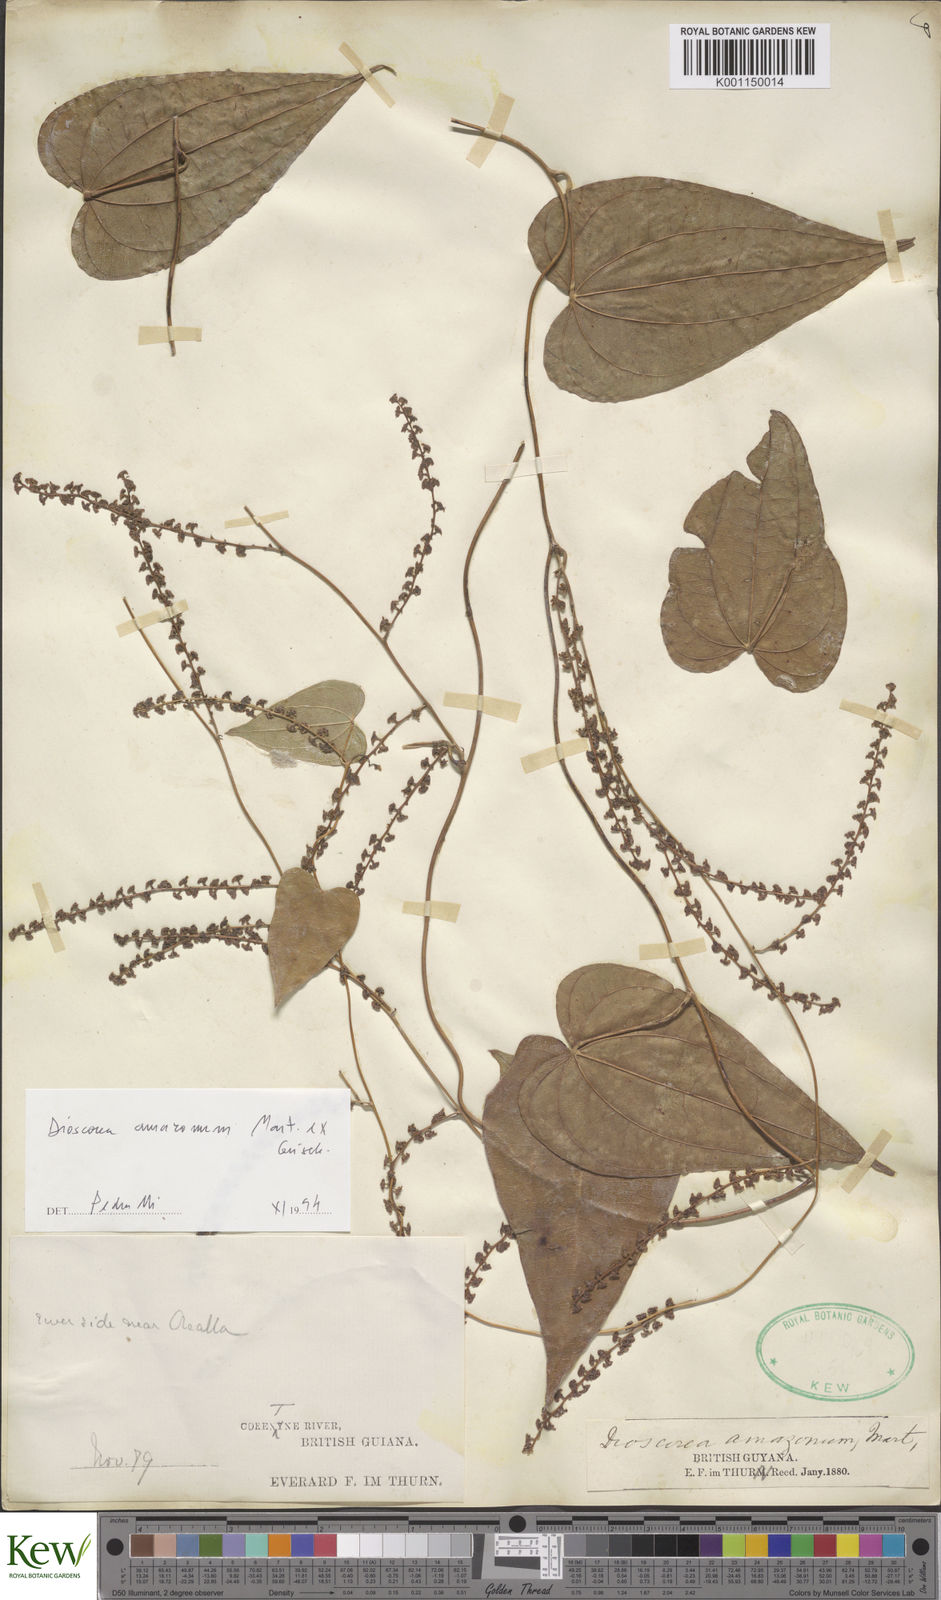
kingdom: Plantae
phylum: Tracheophyta
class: Liliopsida
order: Dioscoreales
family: Dioscoreaceae
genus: Dioscorea
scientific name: Dioscorea amazonum
